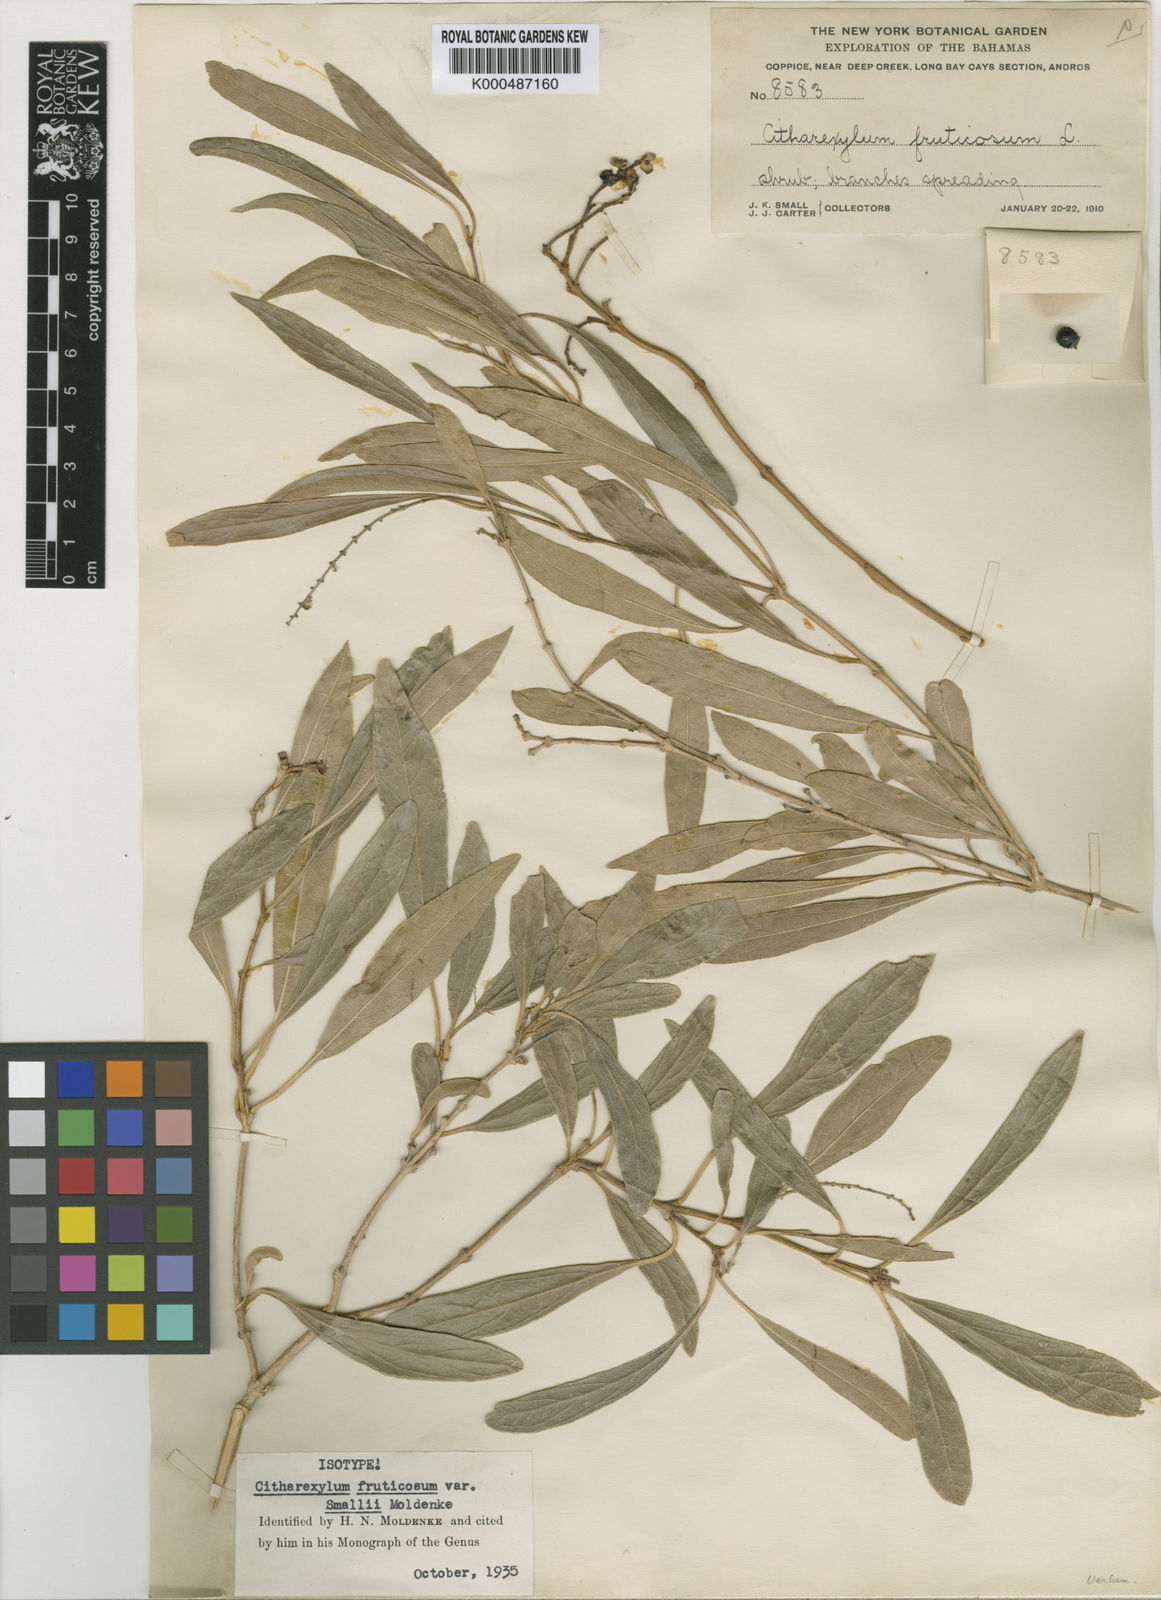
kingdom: Plantae
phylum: Tracheophyta
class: Magnoliopsida
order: Lamiales
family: Verbenaceae
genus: Citharexylum
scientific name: Citharexylum spinosum
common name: Fiddlewood
